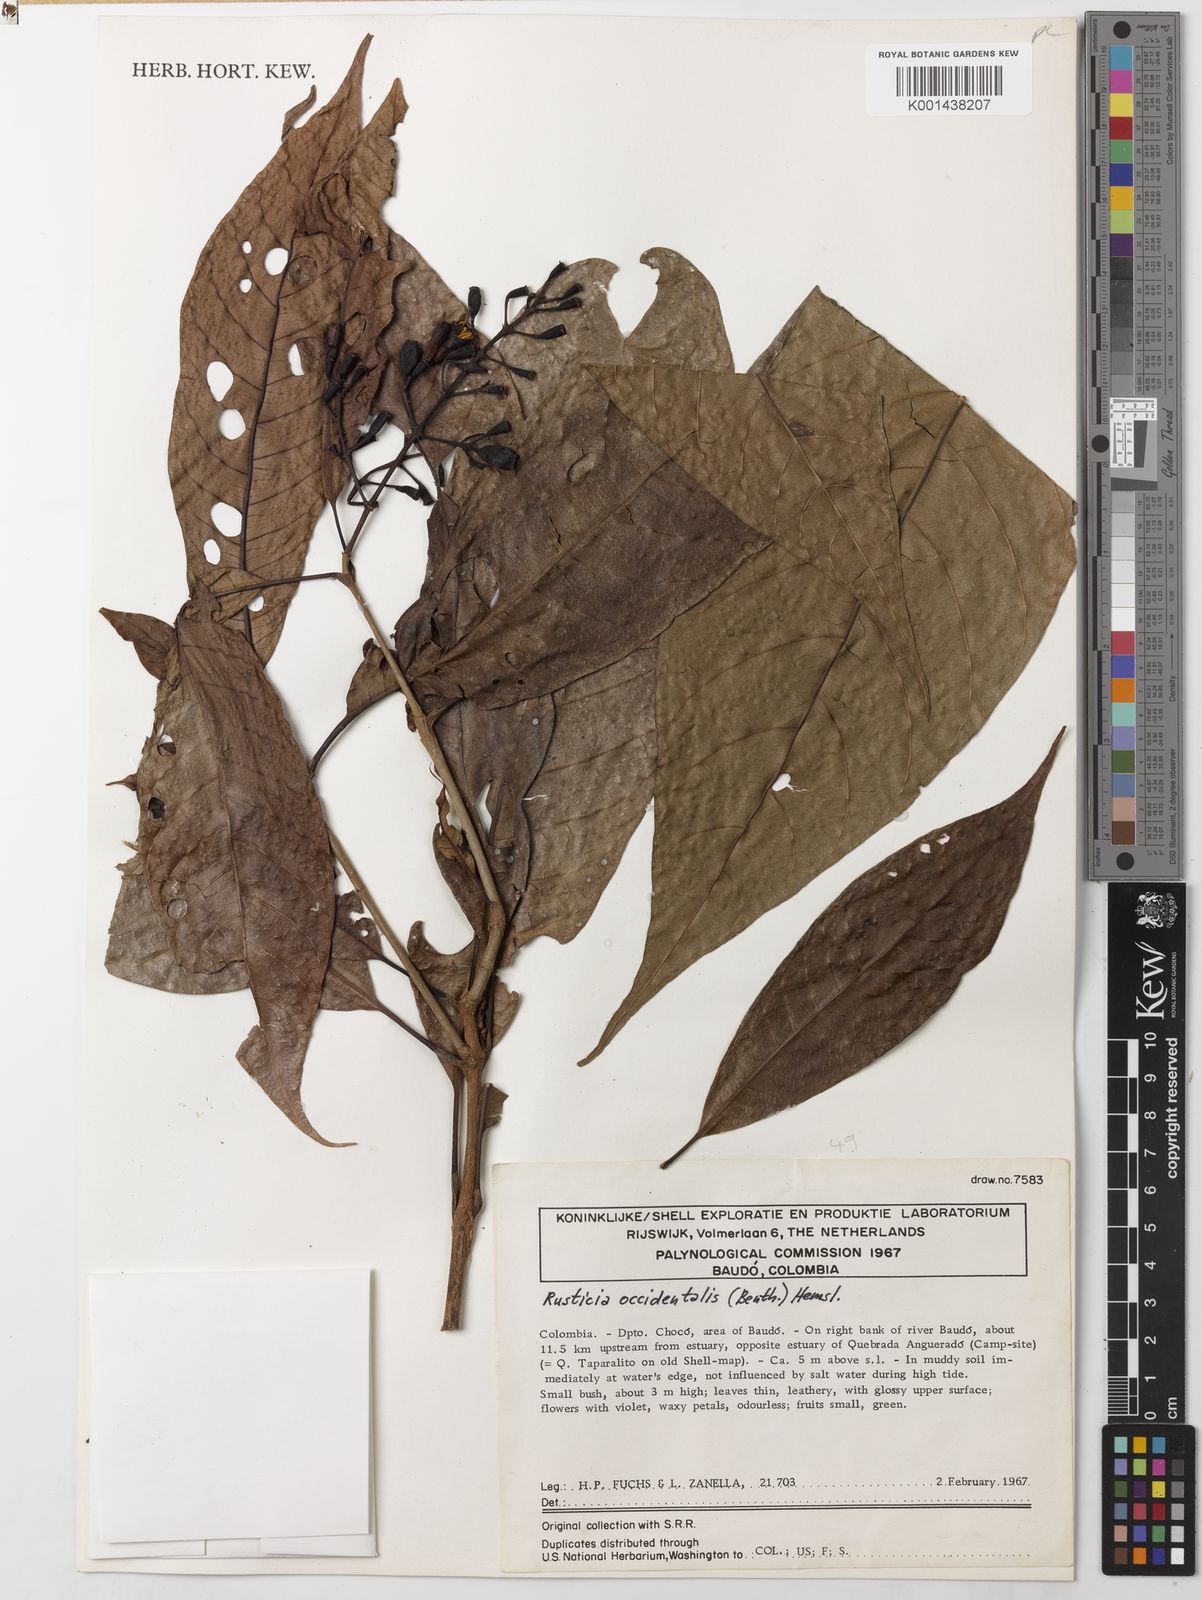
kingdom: Plantae
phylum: Tracheophyta
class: Magnoliopsida
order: Gentianales
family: Rubiaceae
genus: Rustia
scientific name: Rustia occidentalis
